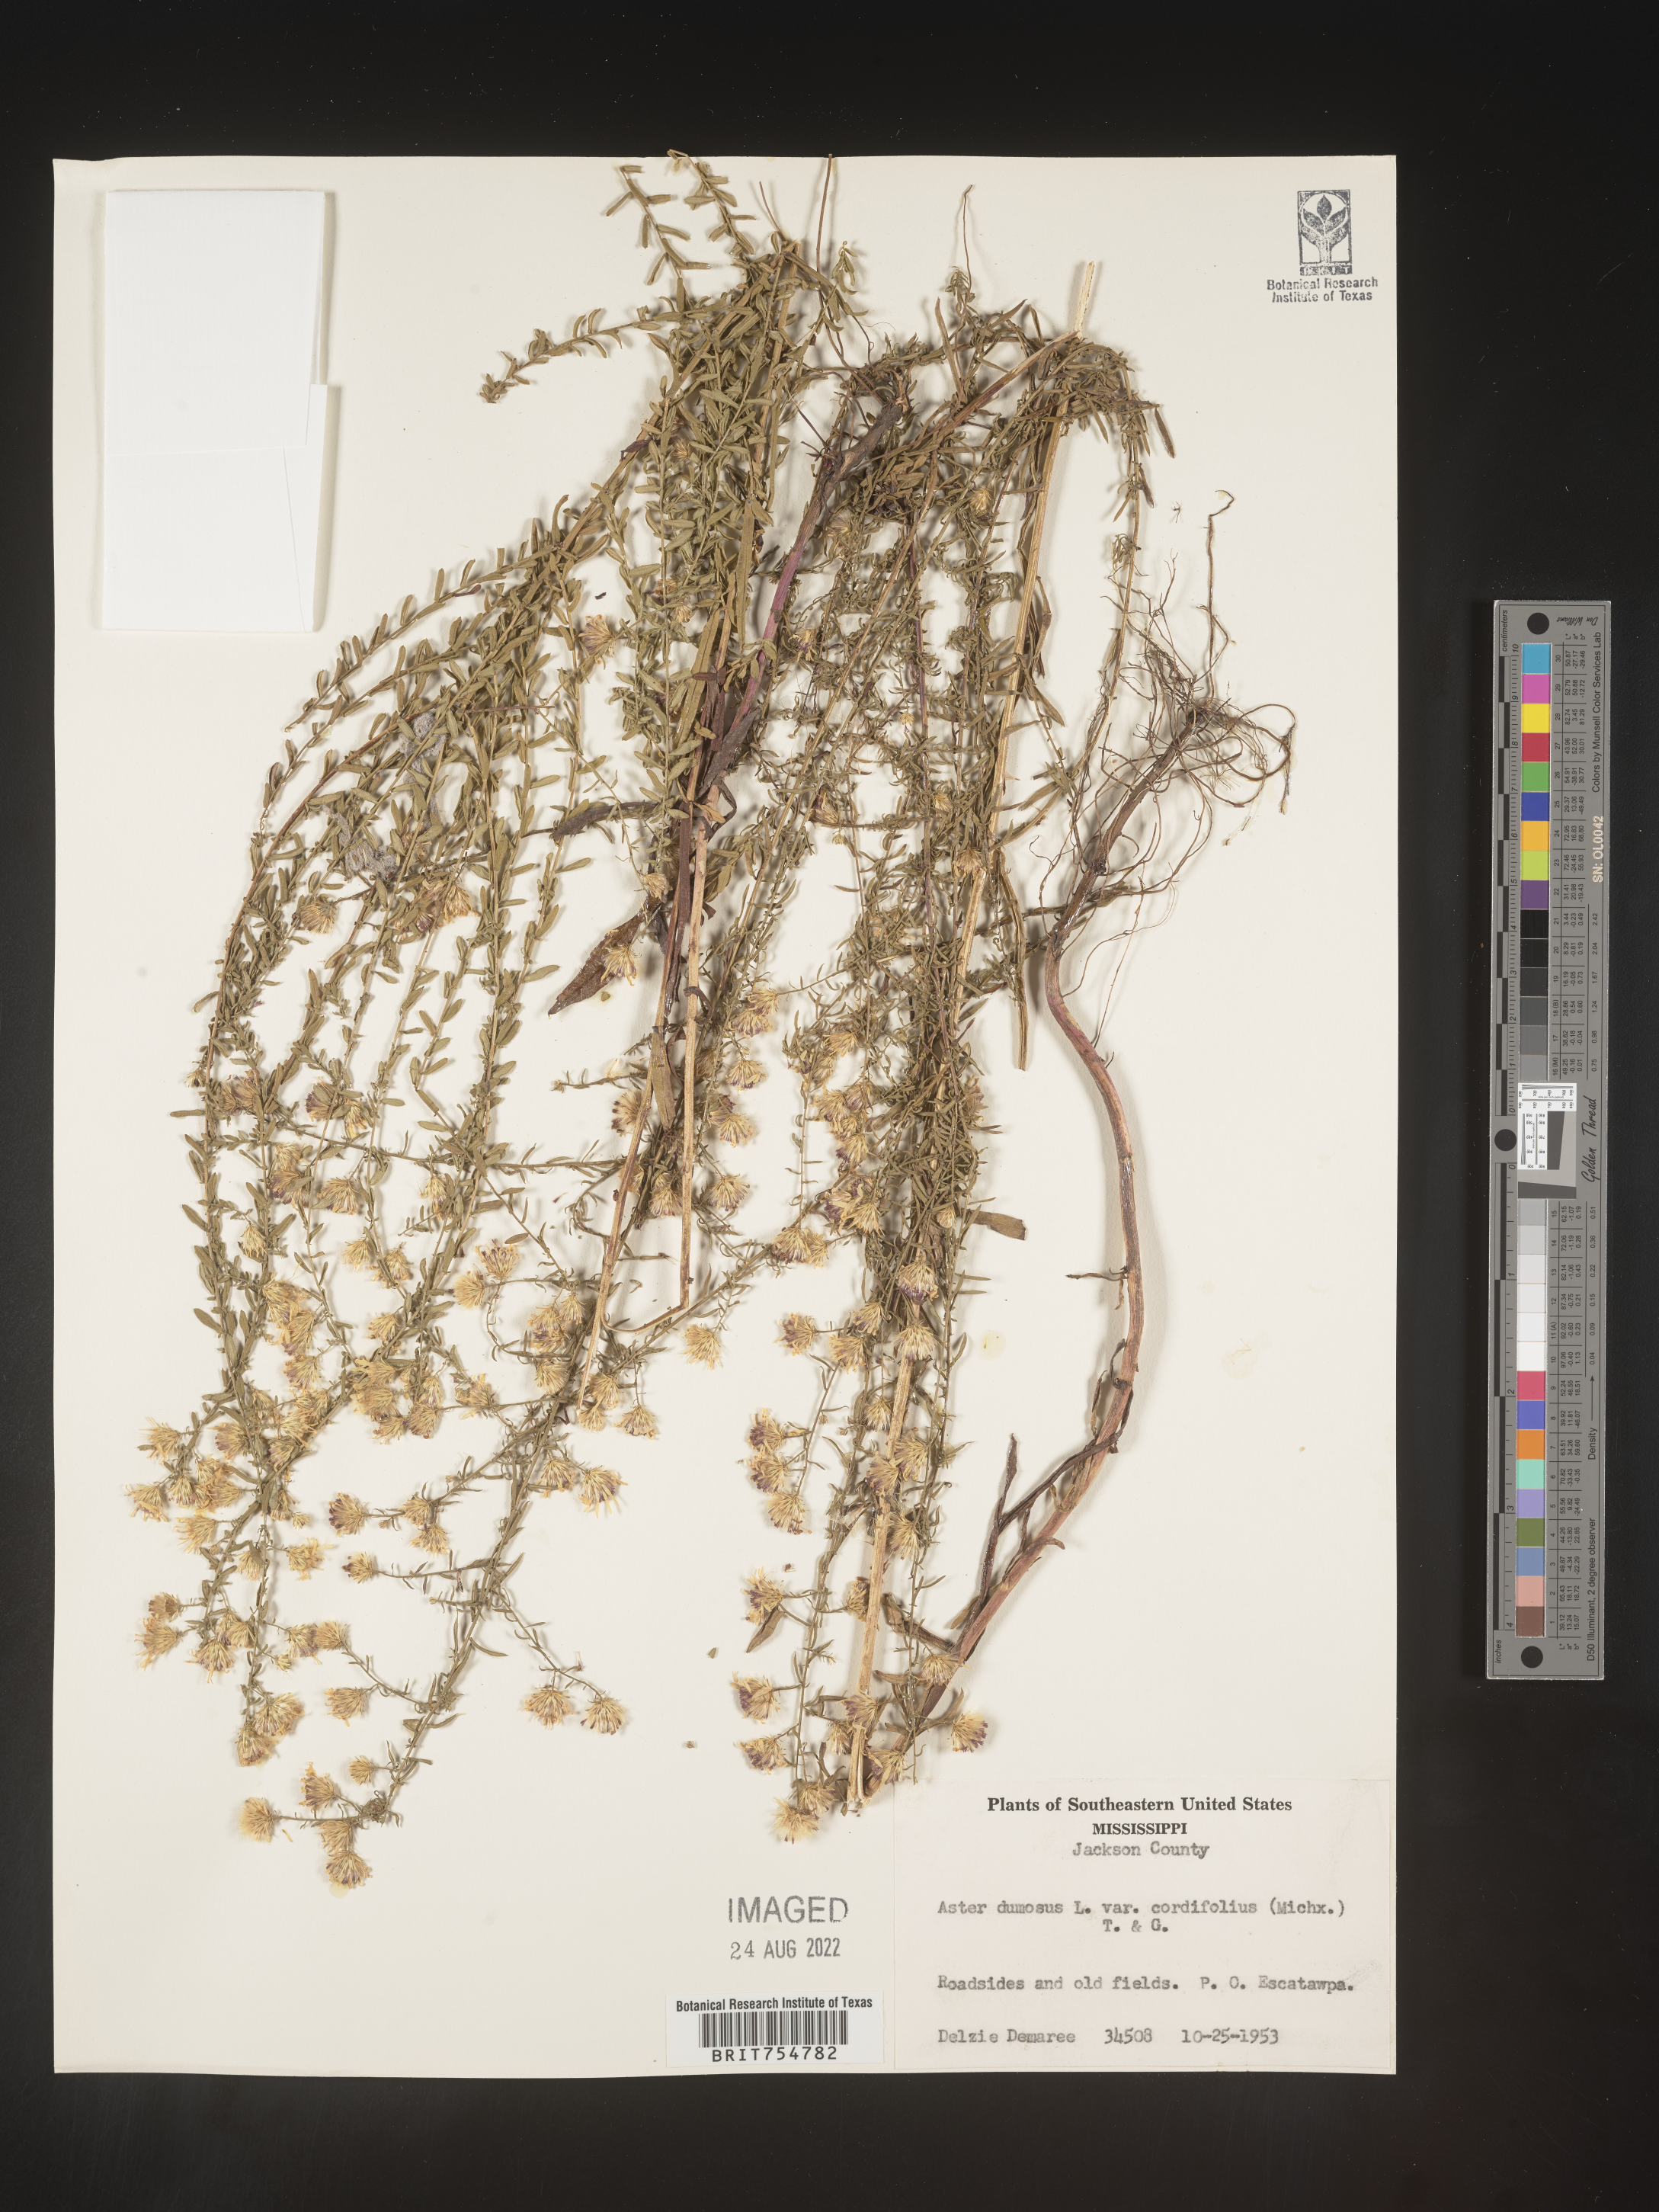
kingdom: Plantae
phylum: Tracheophyta
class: Magnoliopsida
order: Asterales
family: Asteraceae
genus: Symphyotrichum
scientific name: Symphyotrichum
